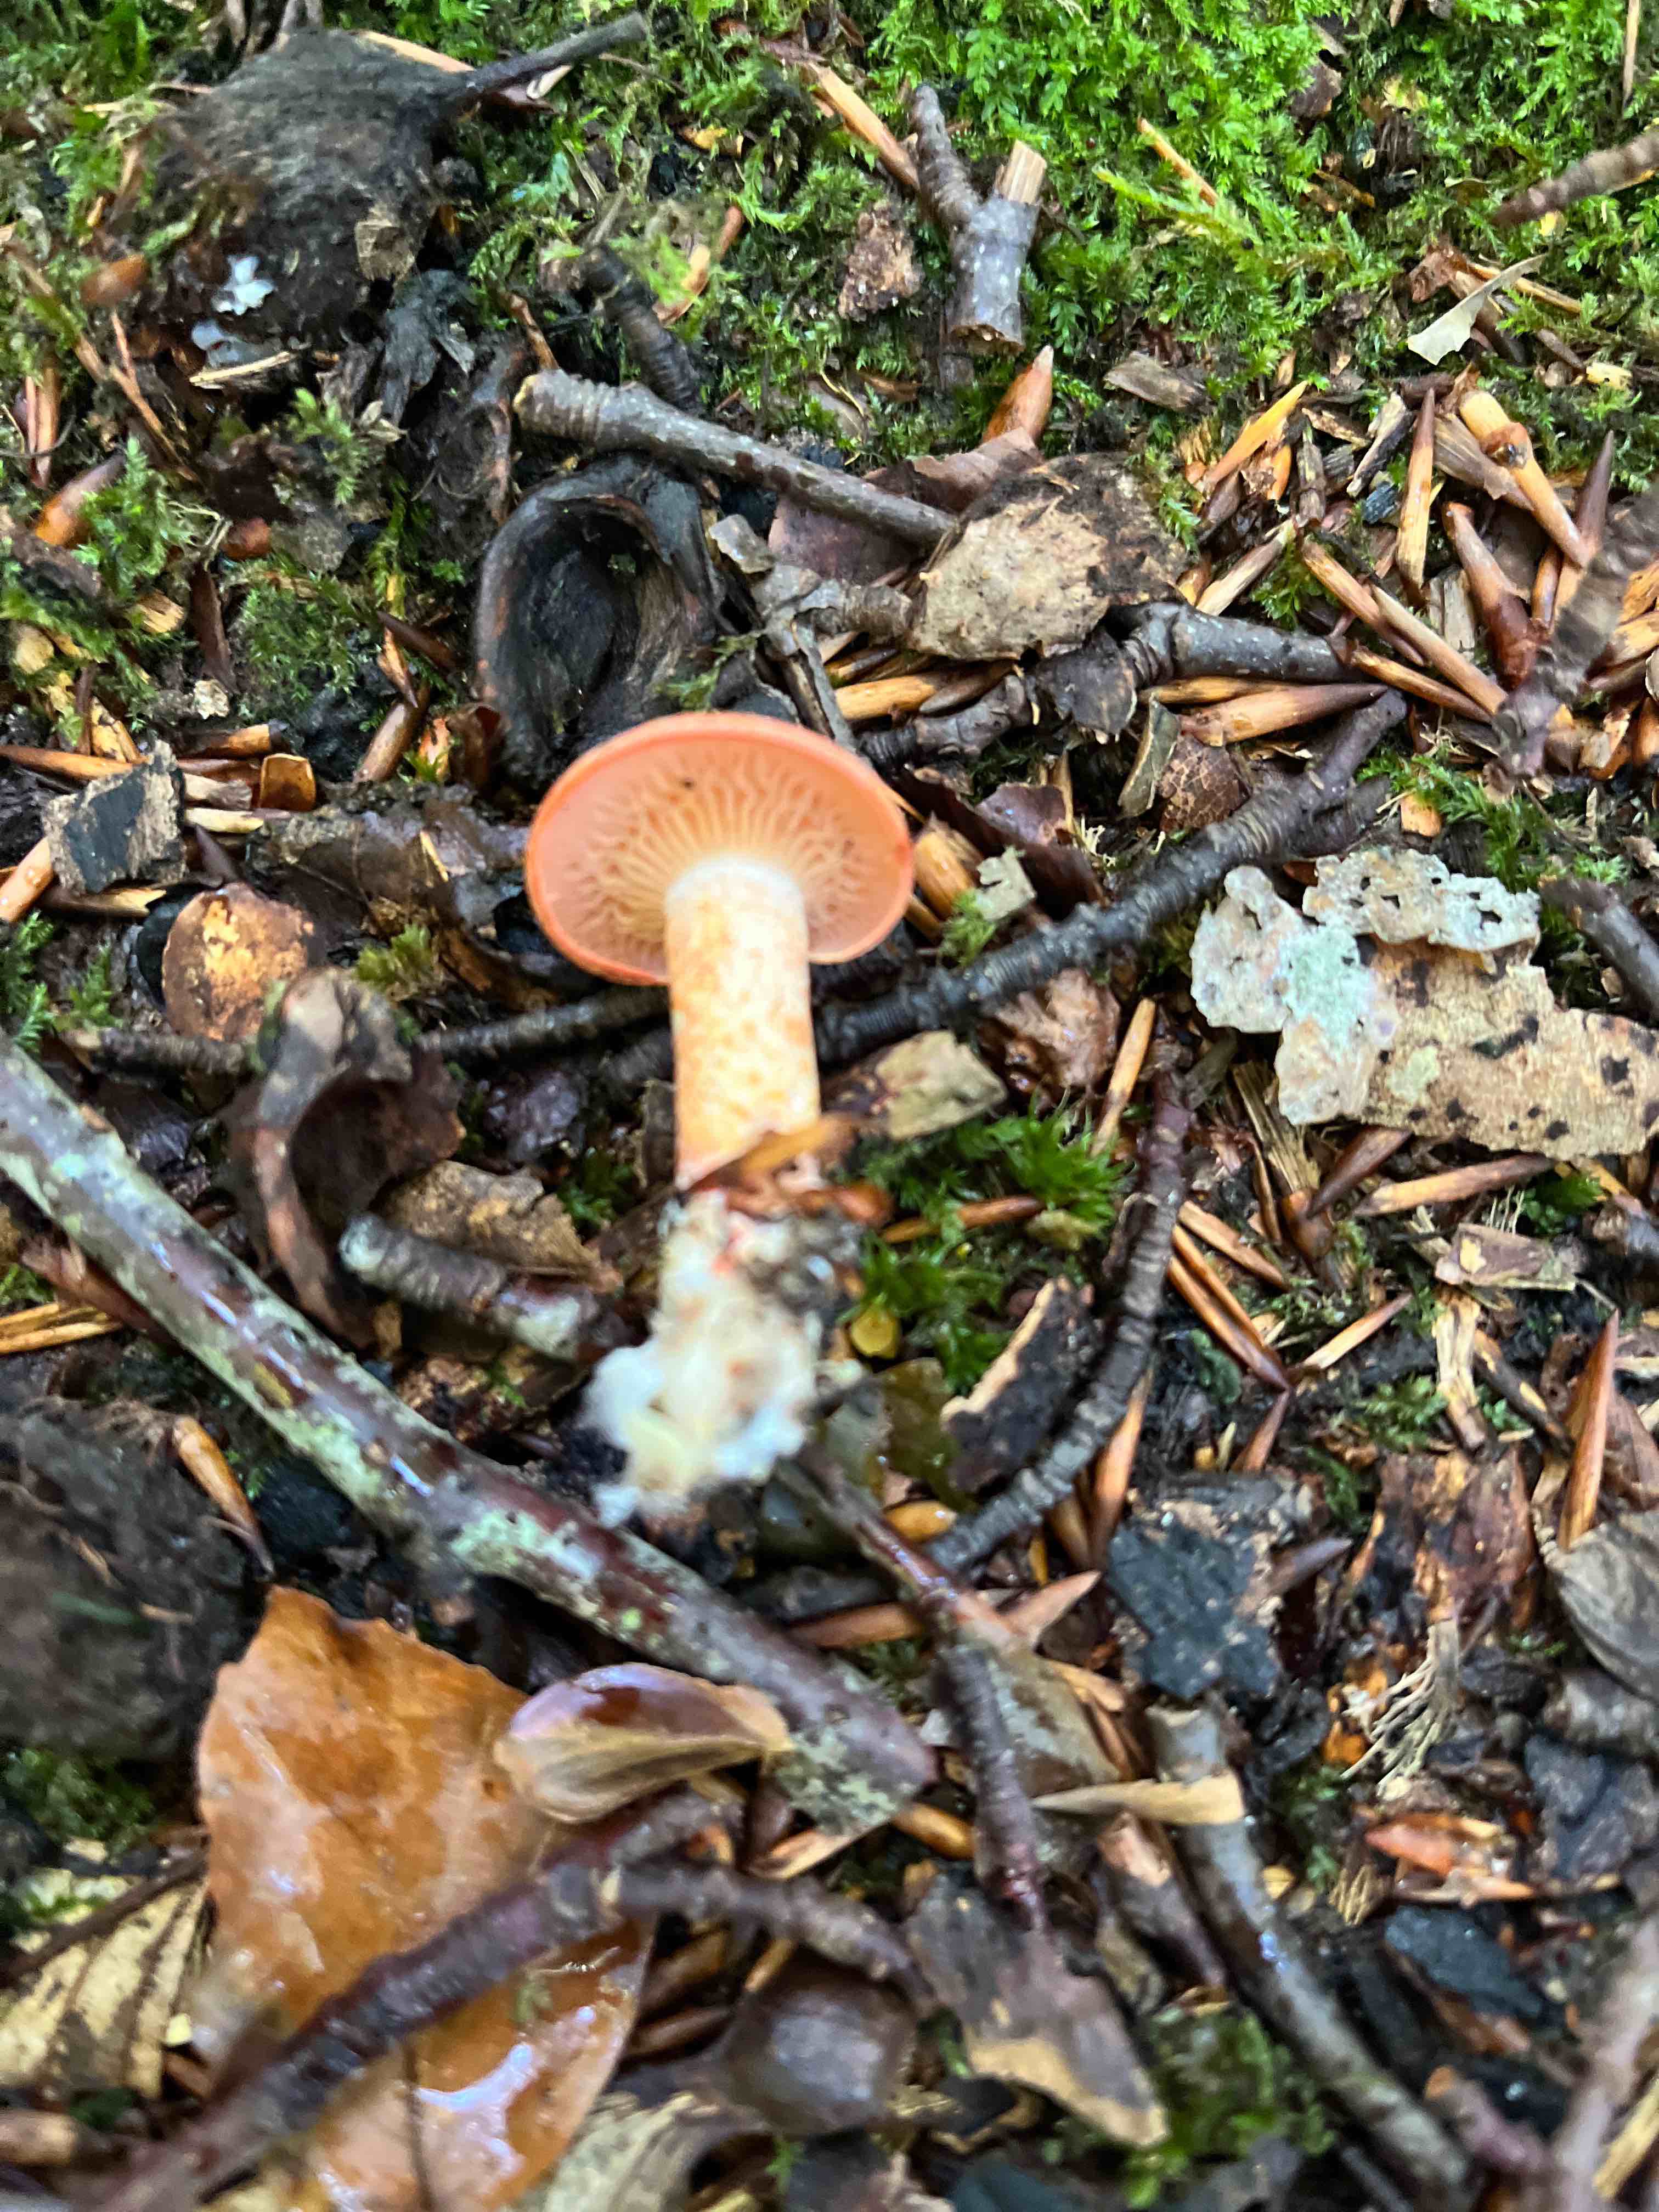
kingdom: Fungi
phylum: Basidiomycota
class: Agaricomycetes
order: Agaricales
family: Cortinariaceae
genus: Cortinarius
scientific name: Cortinarius bolaris
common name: cinnoberskællet slørhat
